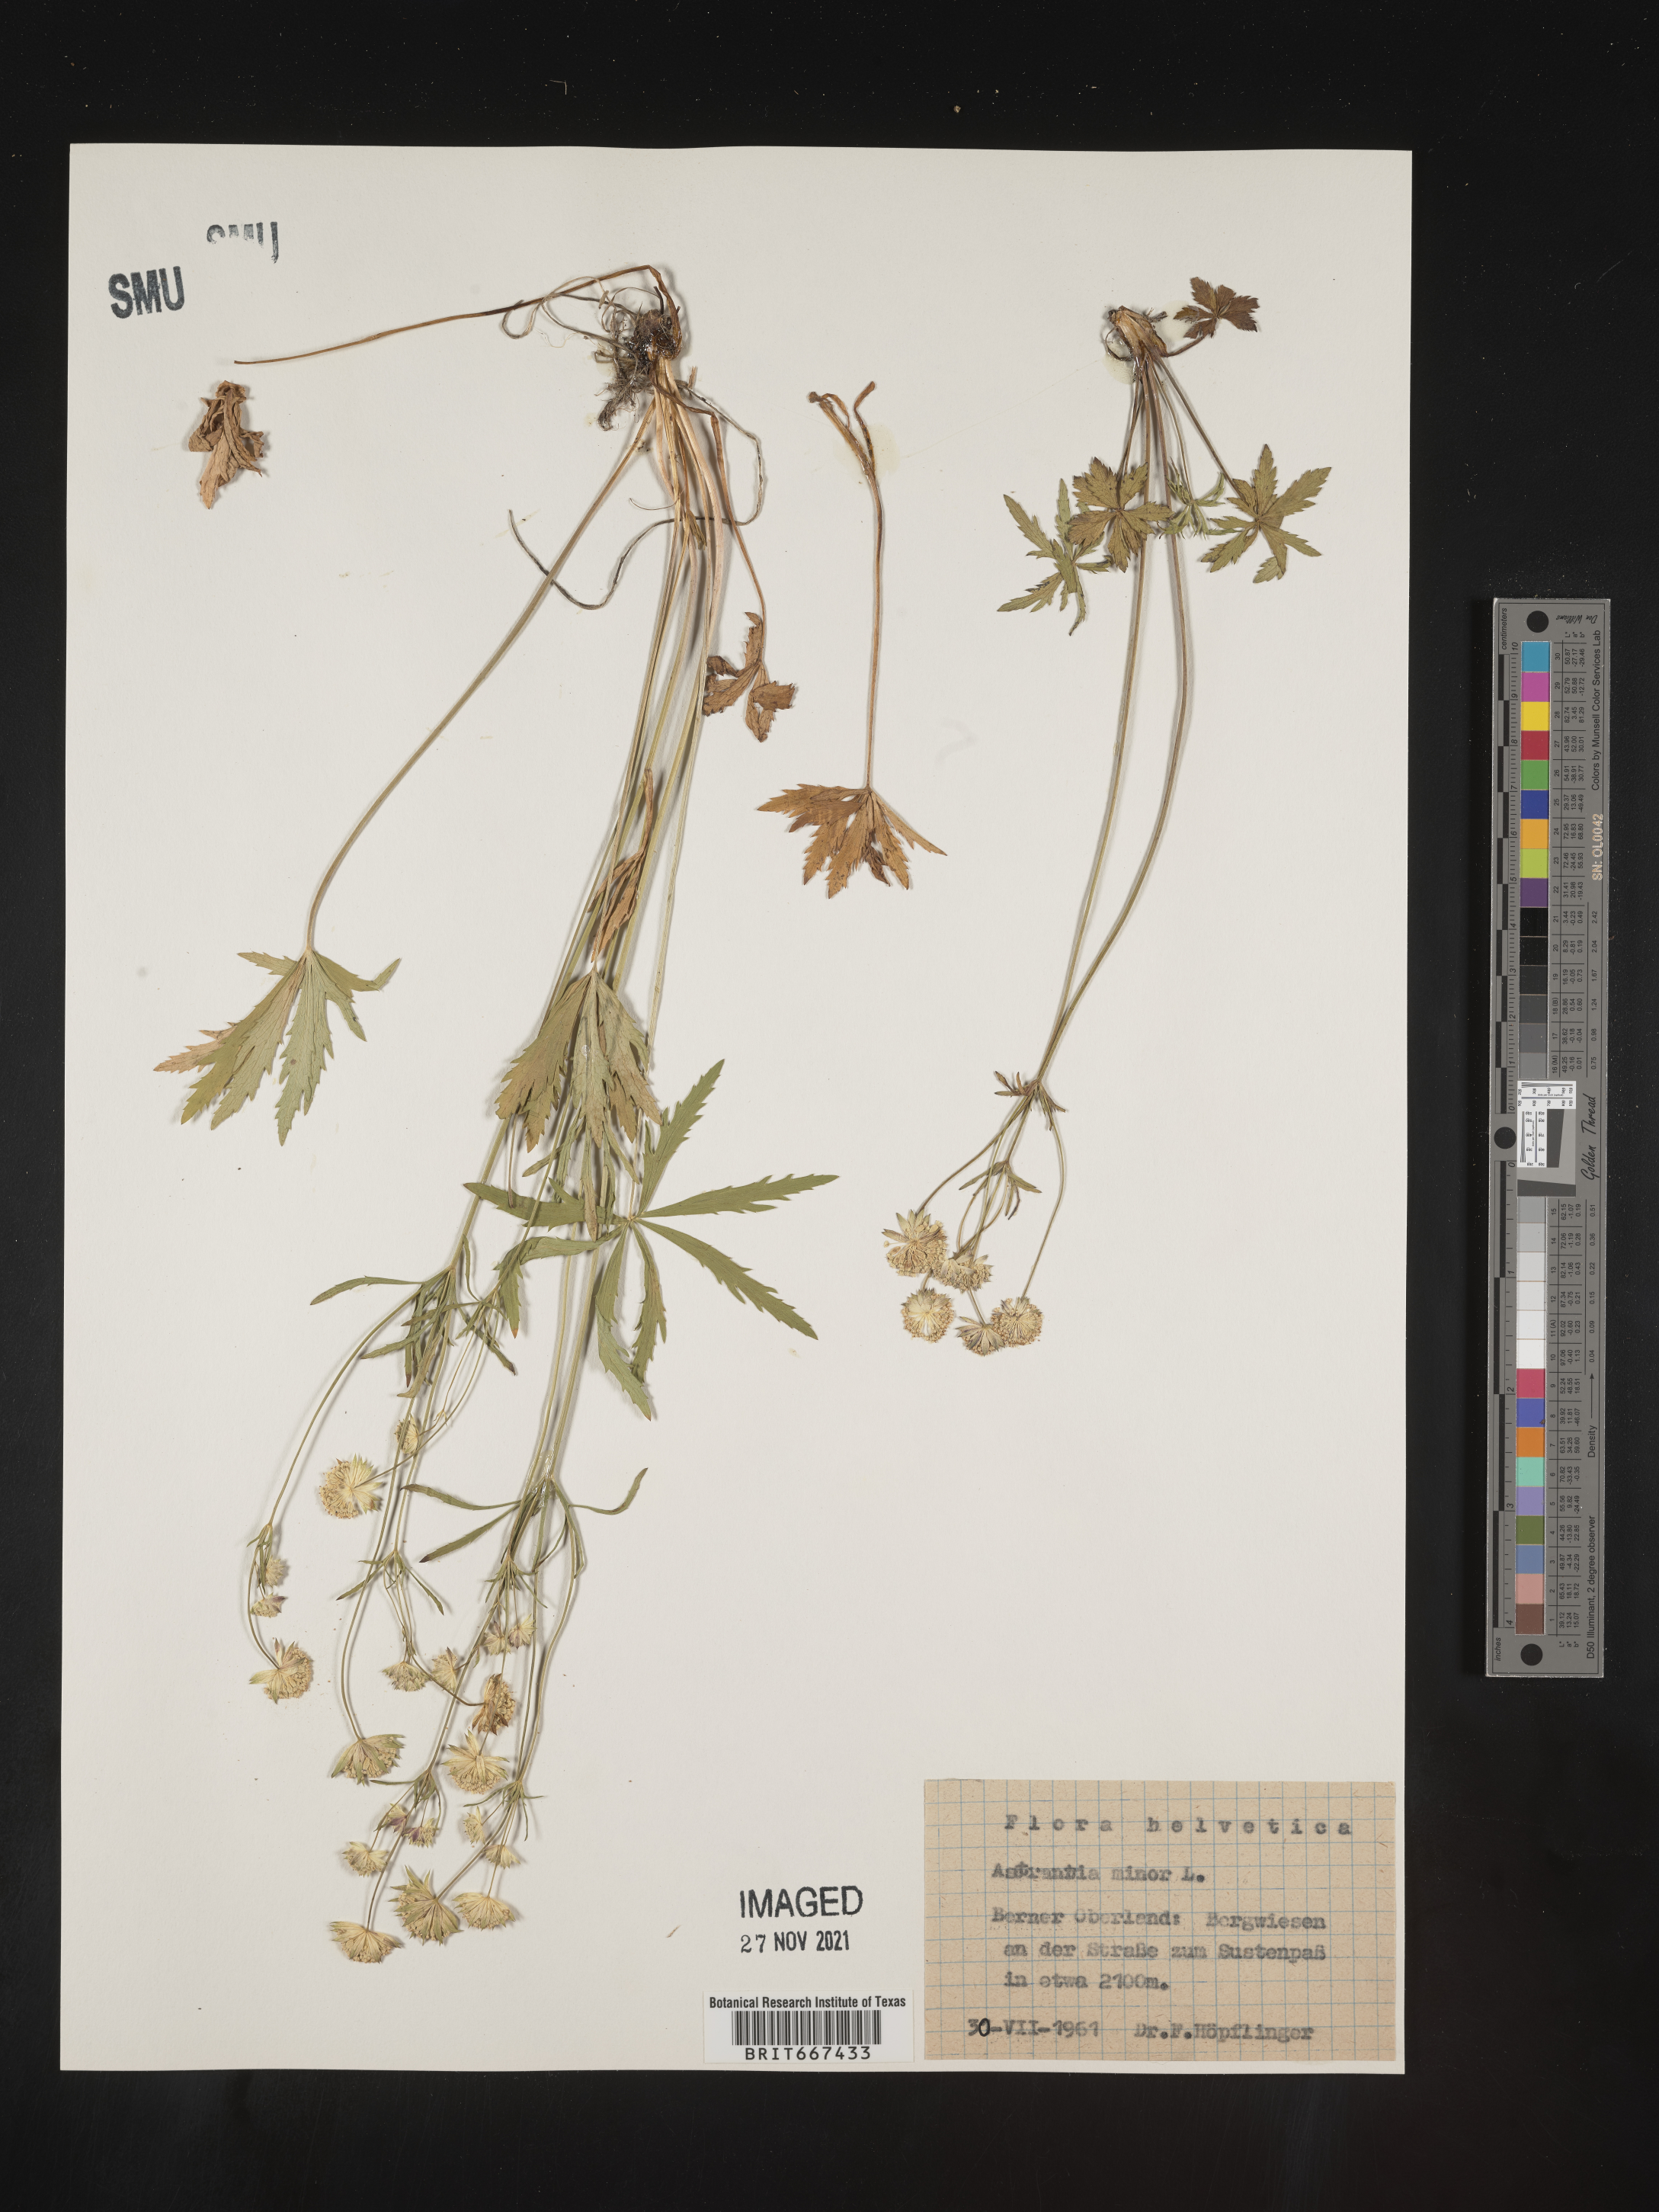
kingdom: Plantae
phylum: Tracheophyta
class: Magnoliopsida
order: Apiales
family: Apiaceae
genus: Astrantia
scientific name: Astrantia
